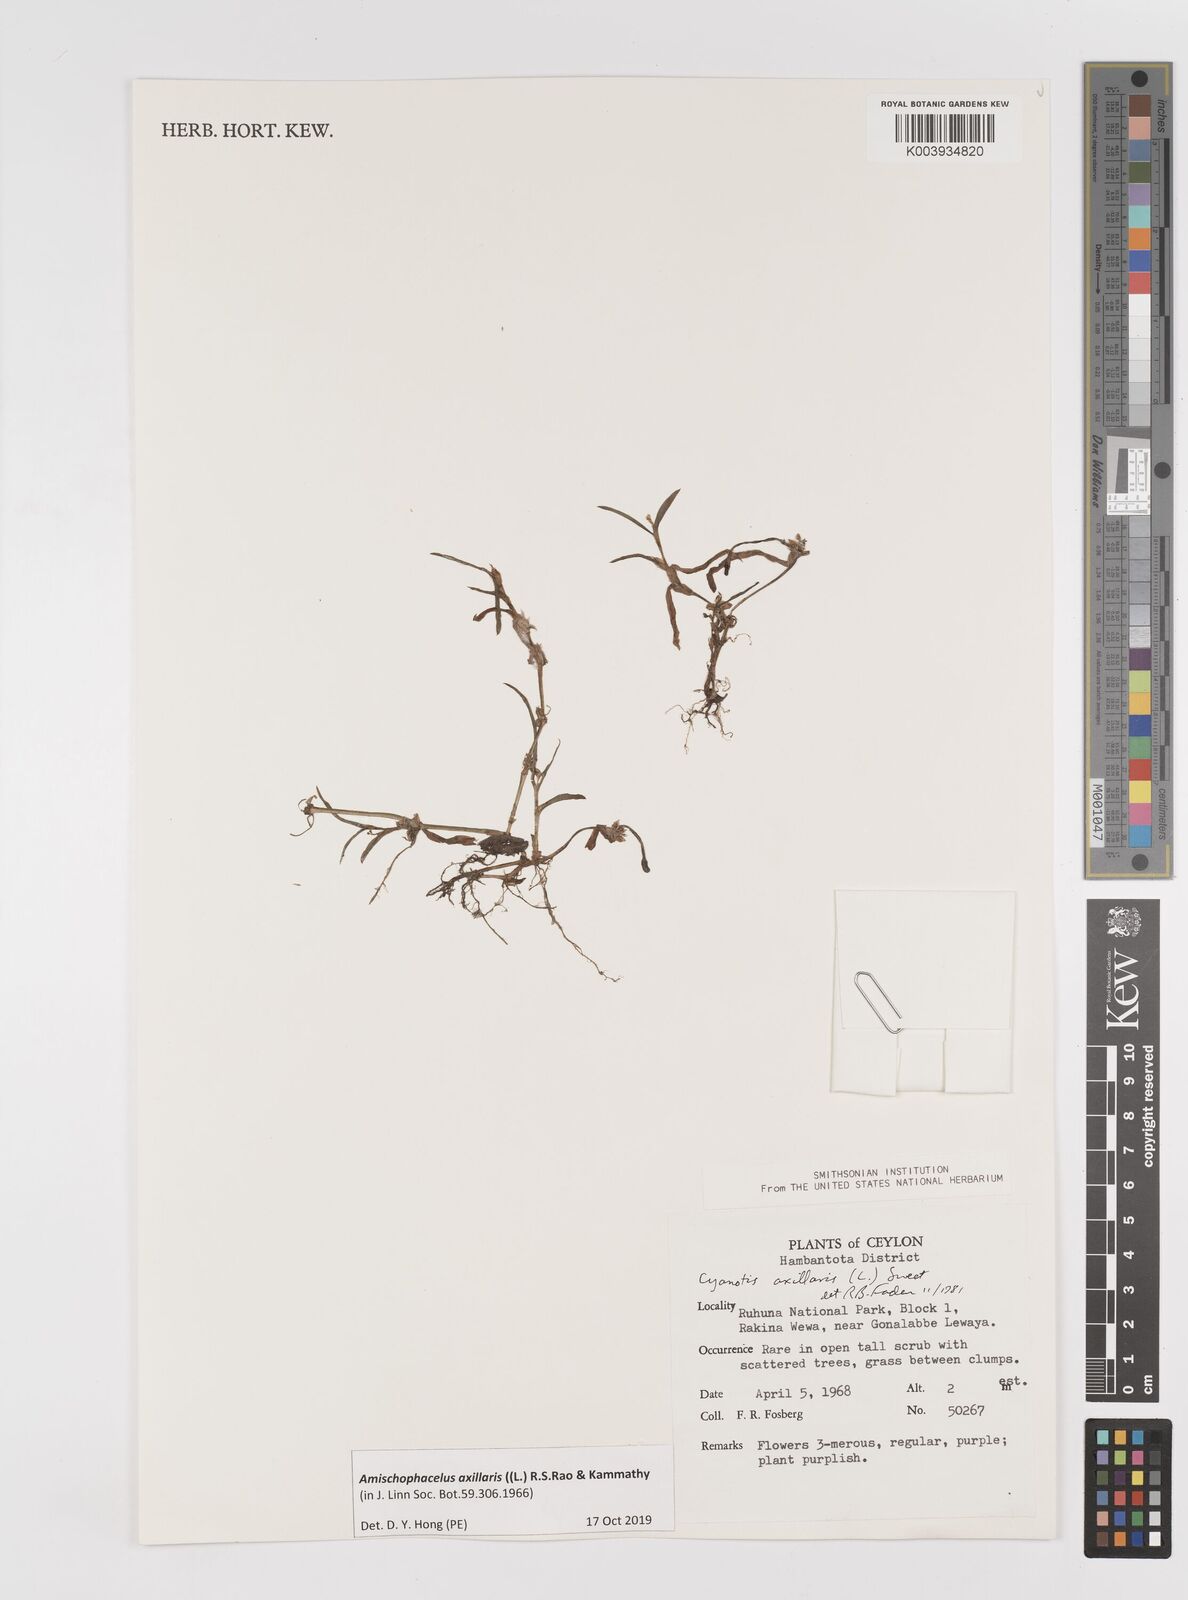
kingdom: Plantae
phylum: Tracheophyta
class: Liliopsida
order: Commelinales
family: Commelinaceae
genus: Cyanotis
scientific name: Cyanotis axillaris
